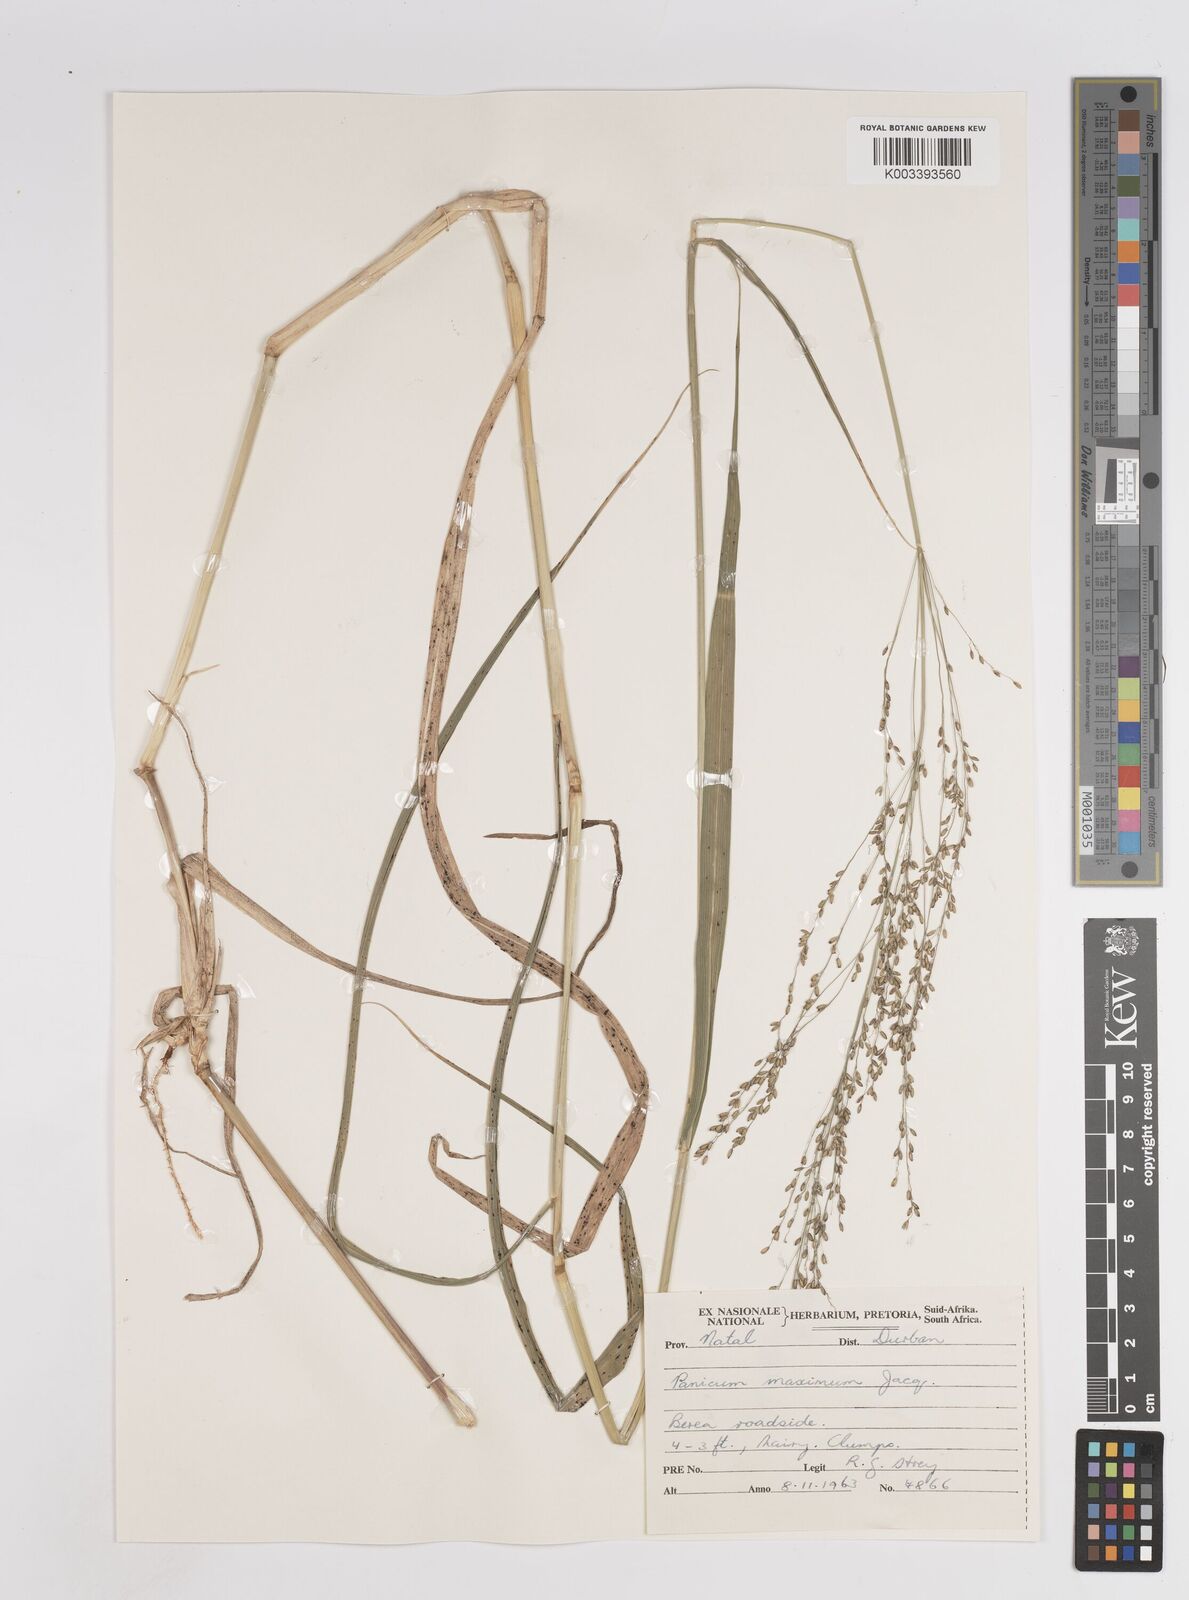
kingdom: Plantae
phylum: Tracheophyta
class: Liliopsida
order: Poales
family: Poaceae
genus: Megathyrsus
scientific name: Megathyrsus maximus
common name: Guineagrass
